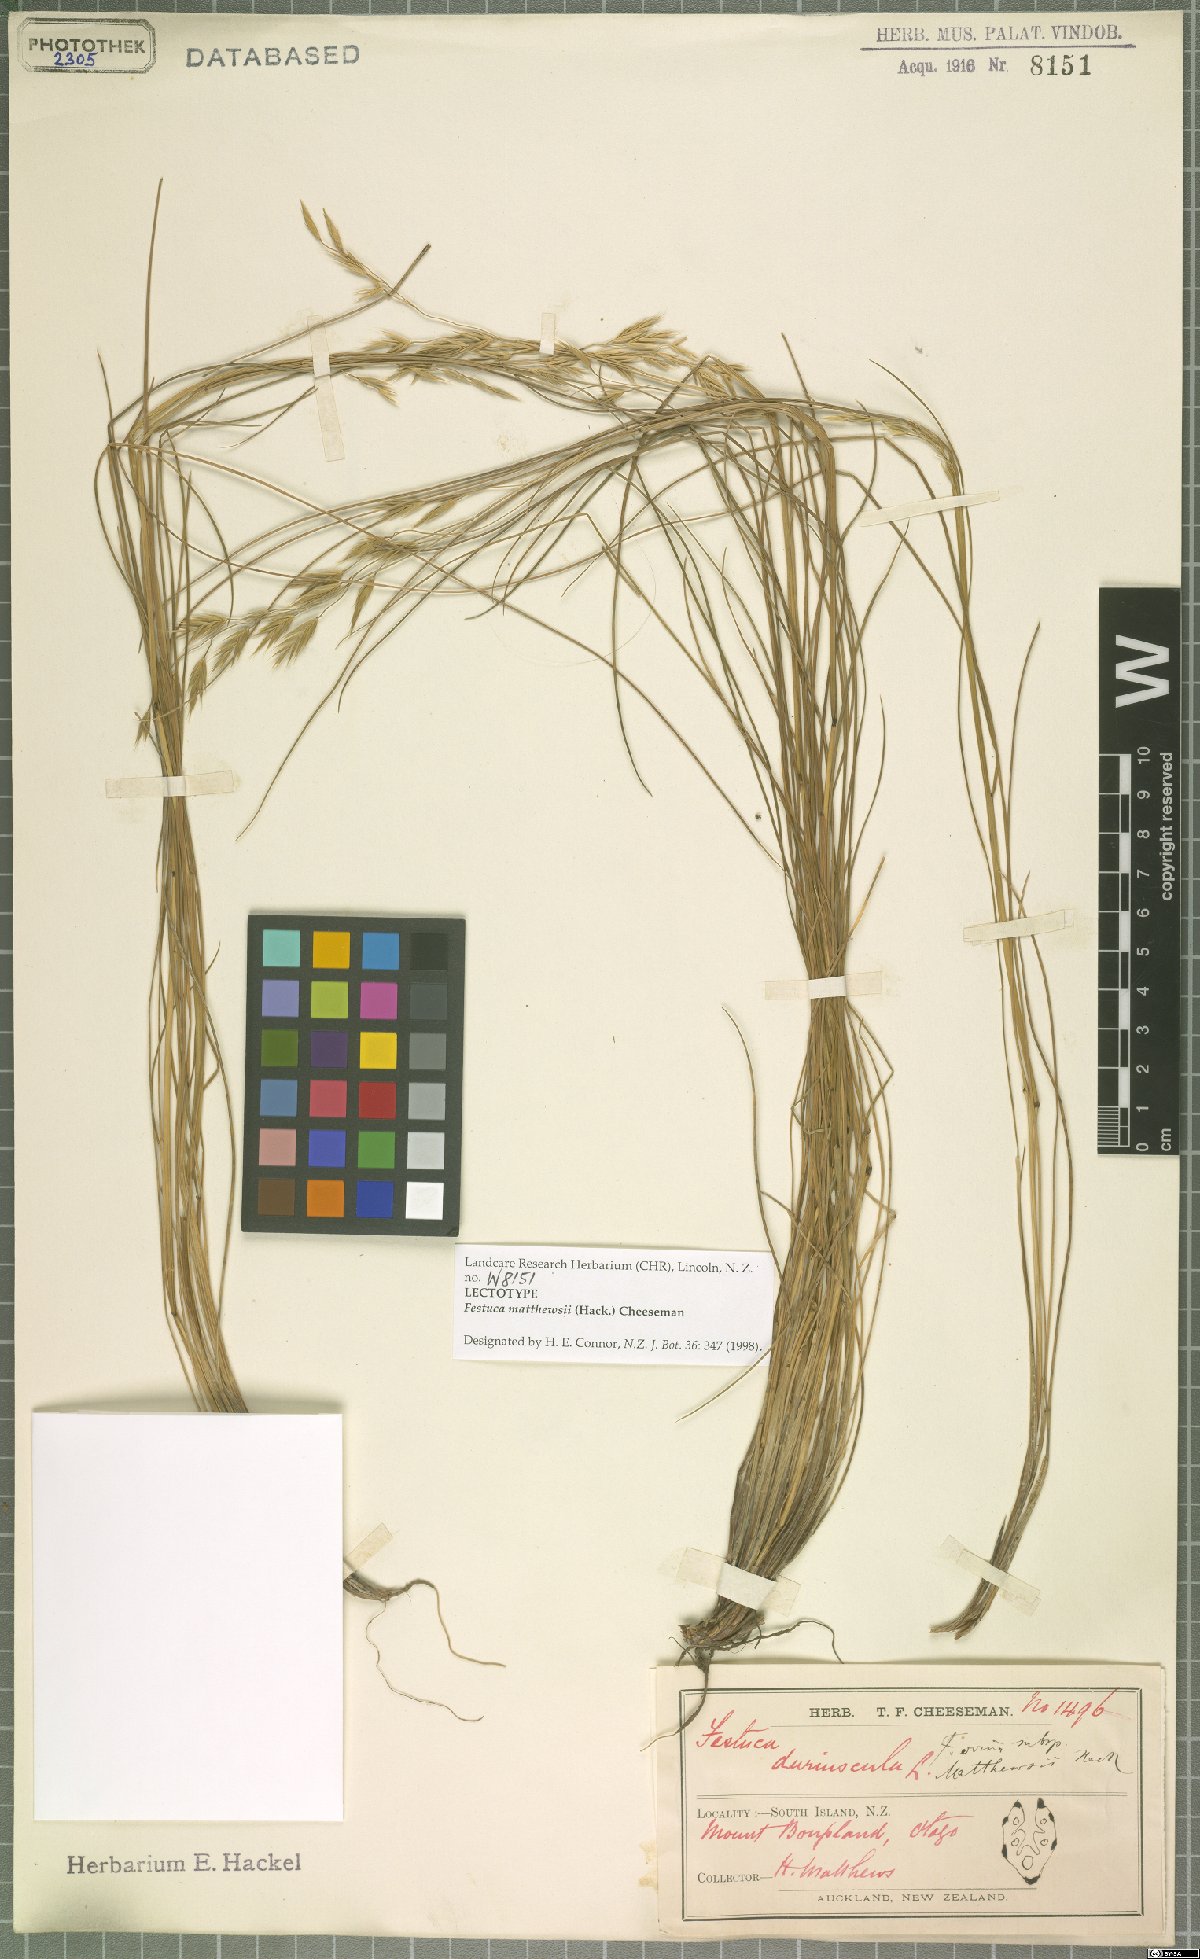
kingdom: Plantae
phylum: Tracheophyta
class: Liliopsida
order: Poales
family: Poaceae
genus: Festuca
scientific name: Festuca matthewsii
